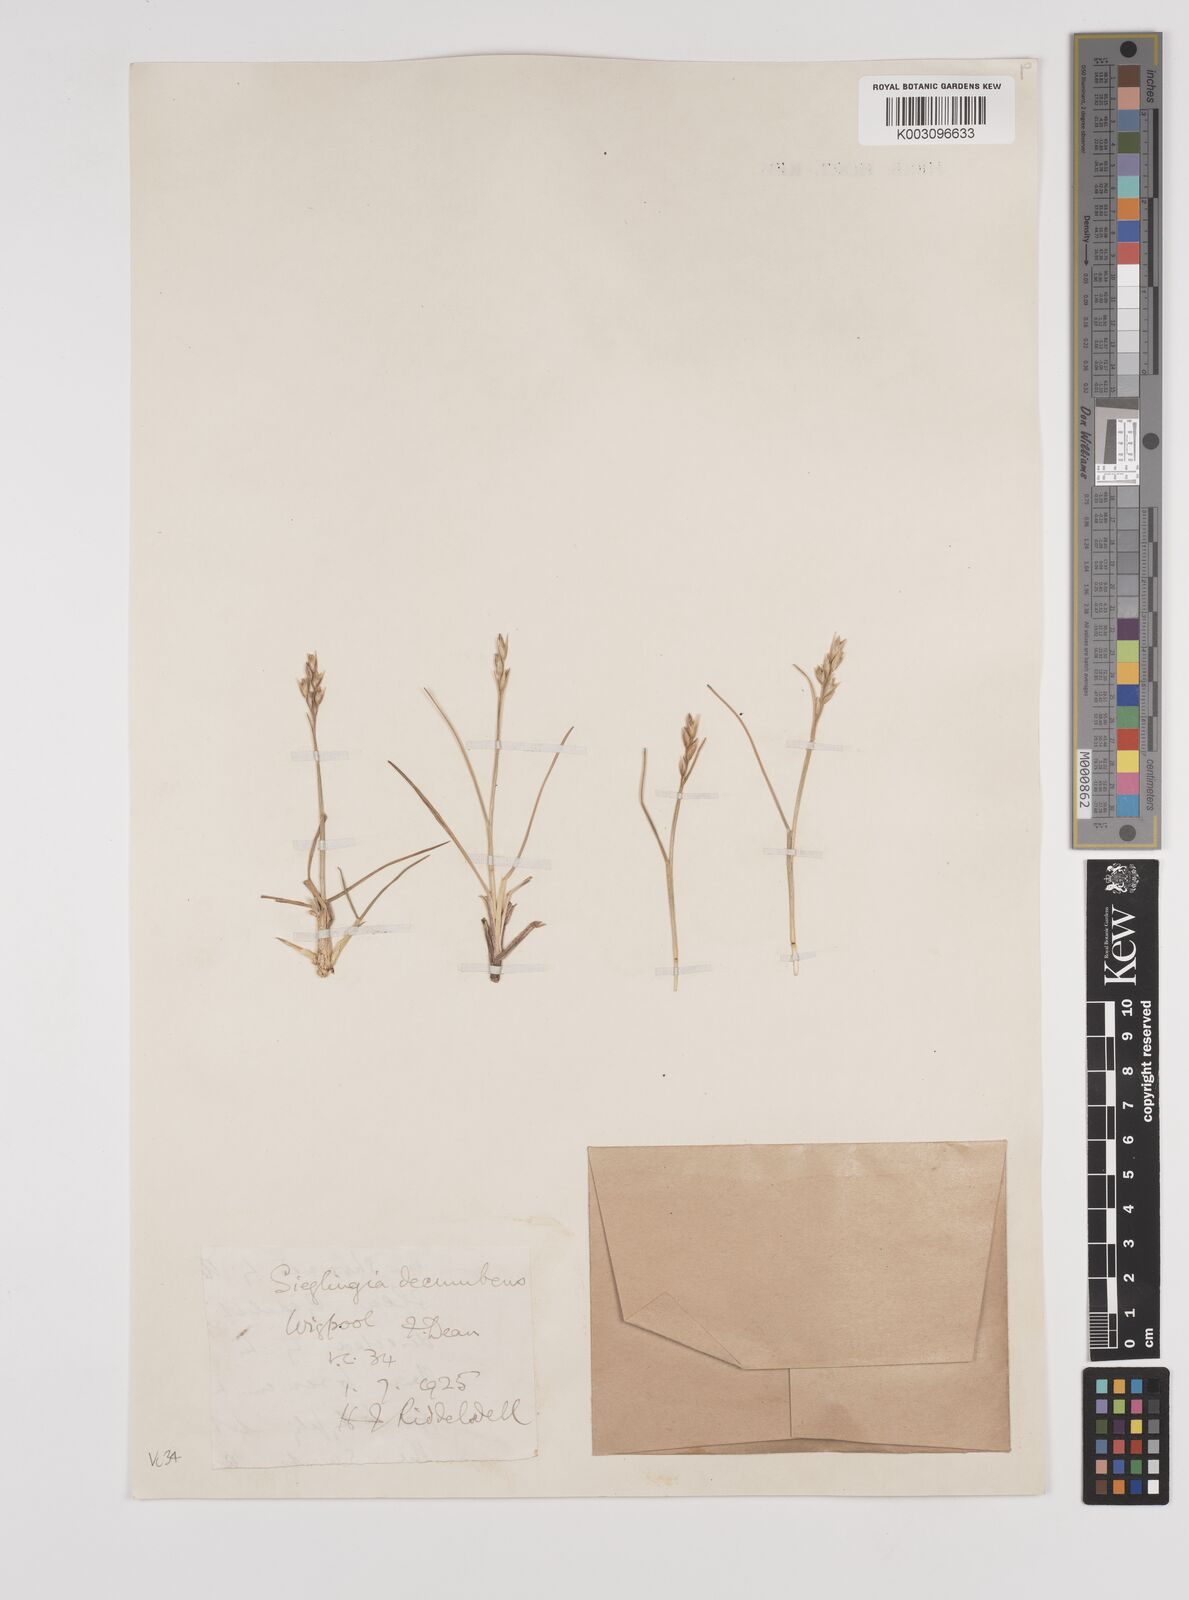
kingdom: Plantae
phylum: Tracheophyta
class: Liliopsida
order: Poales
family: Poaceae
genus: Danthonia
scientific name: Danthonia decumbens
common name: Common heathgrass
